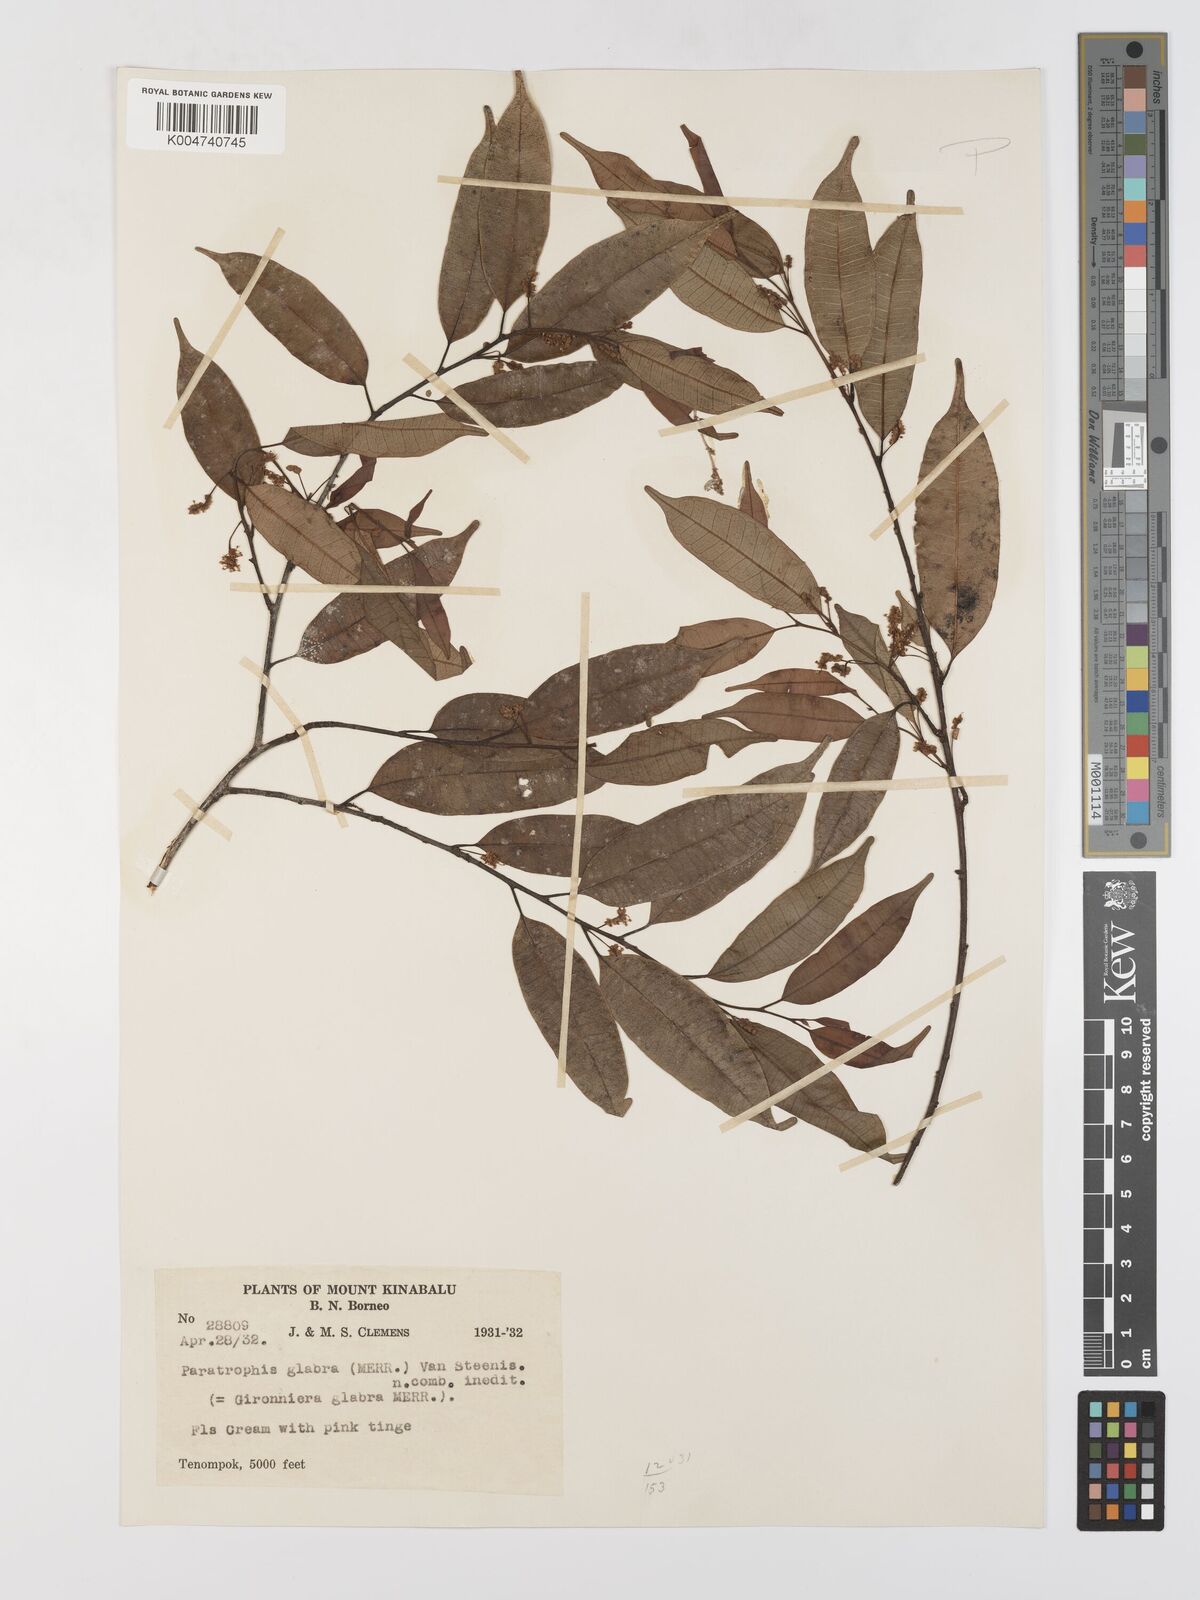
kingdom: Plantae
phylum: Tracheophyta
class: Magnoliopsida
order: Rosales
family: Moraceae
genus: Paratrophis
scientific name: Paratrophis glabra
